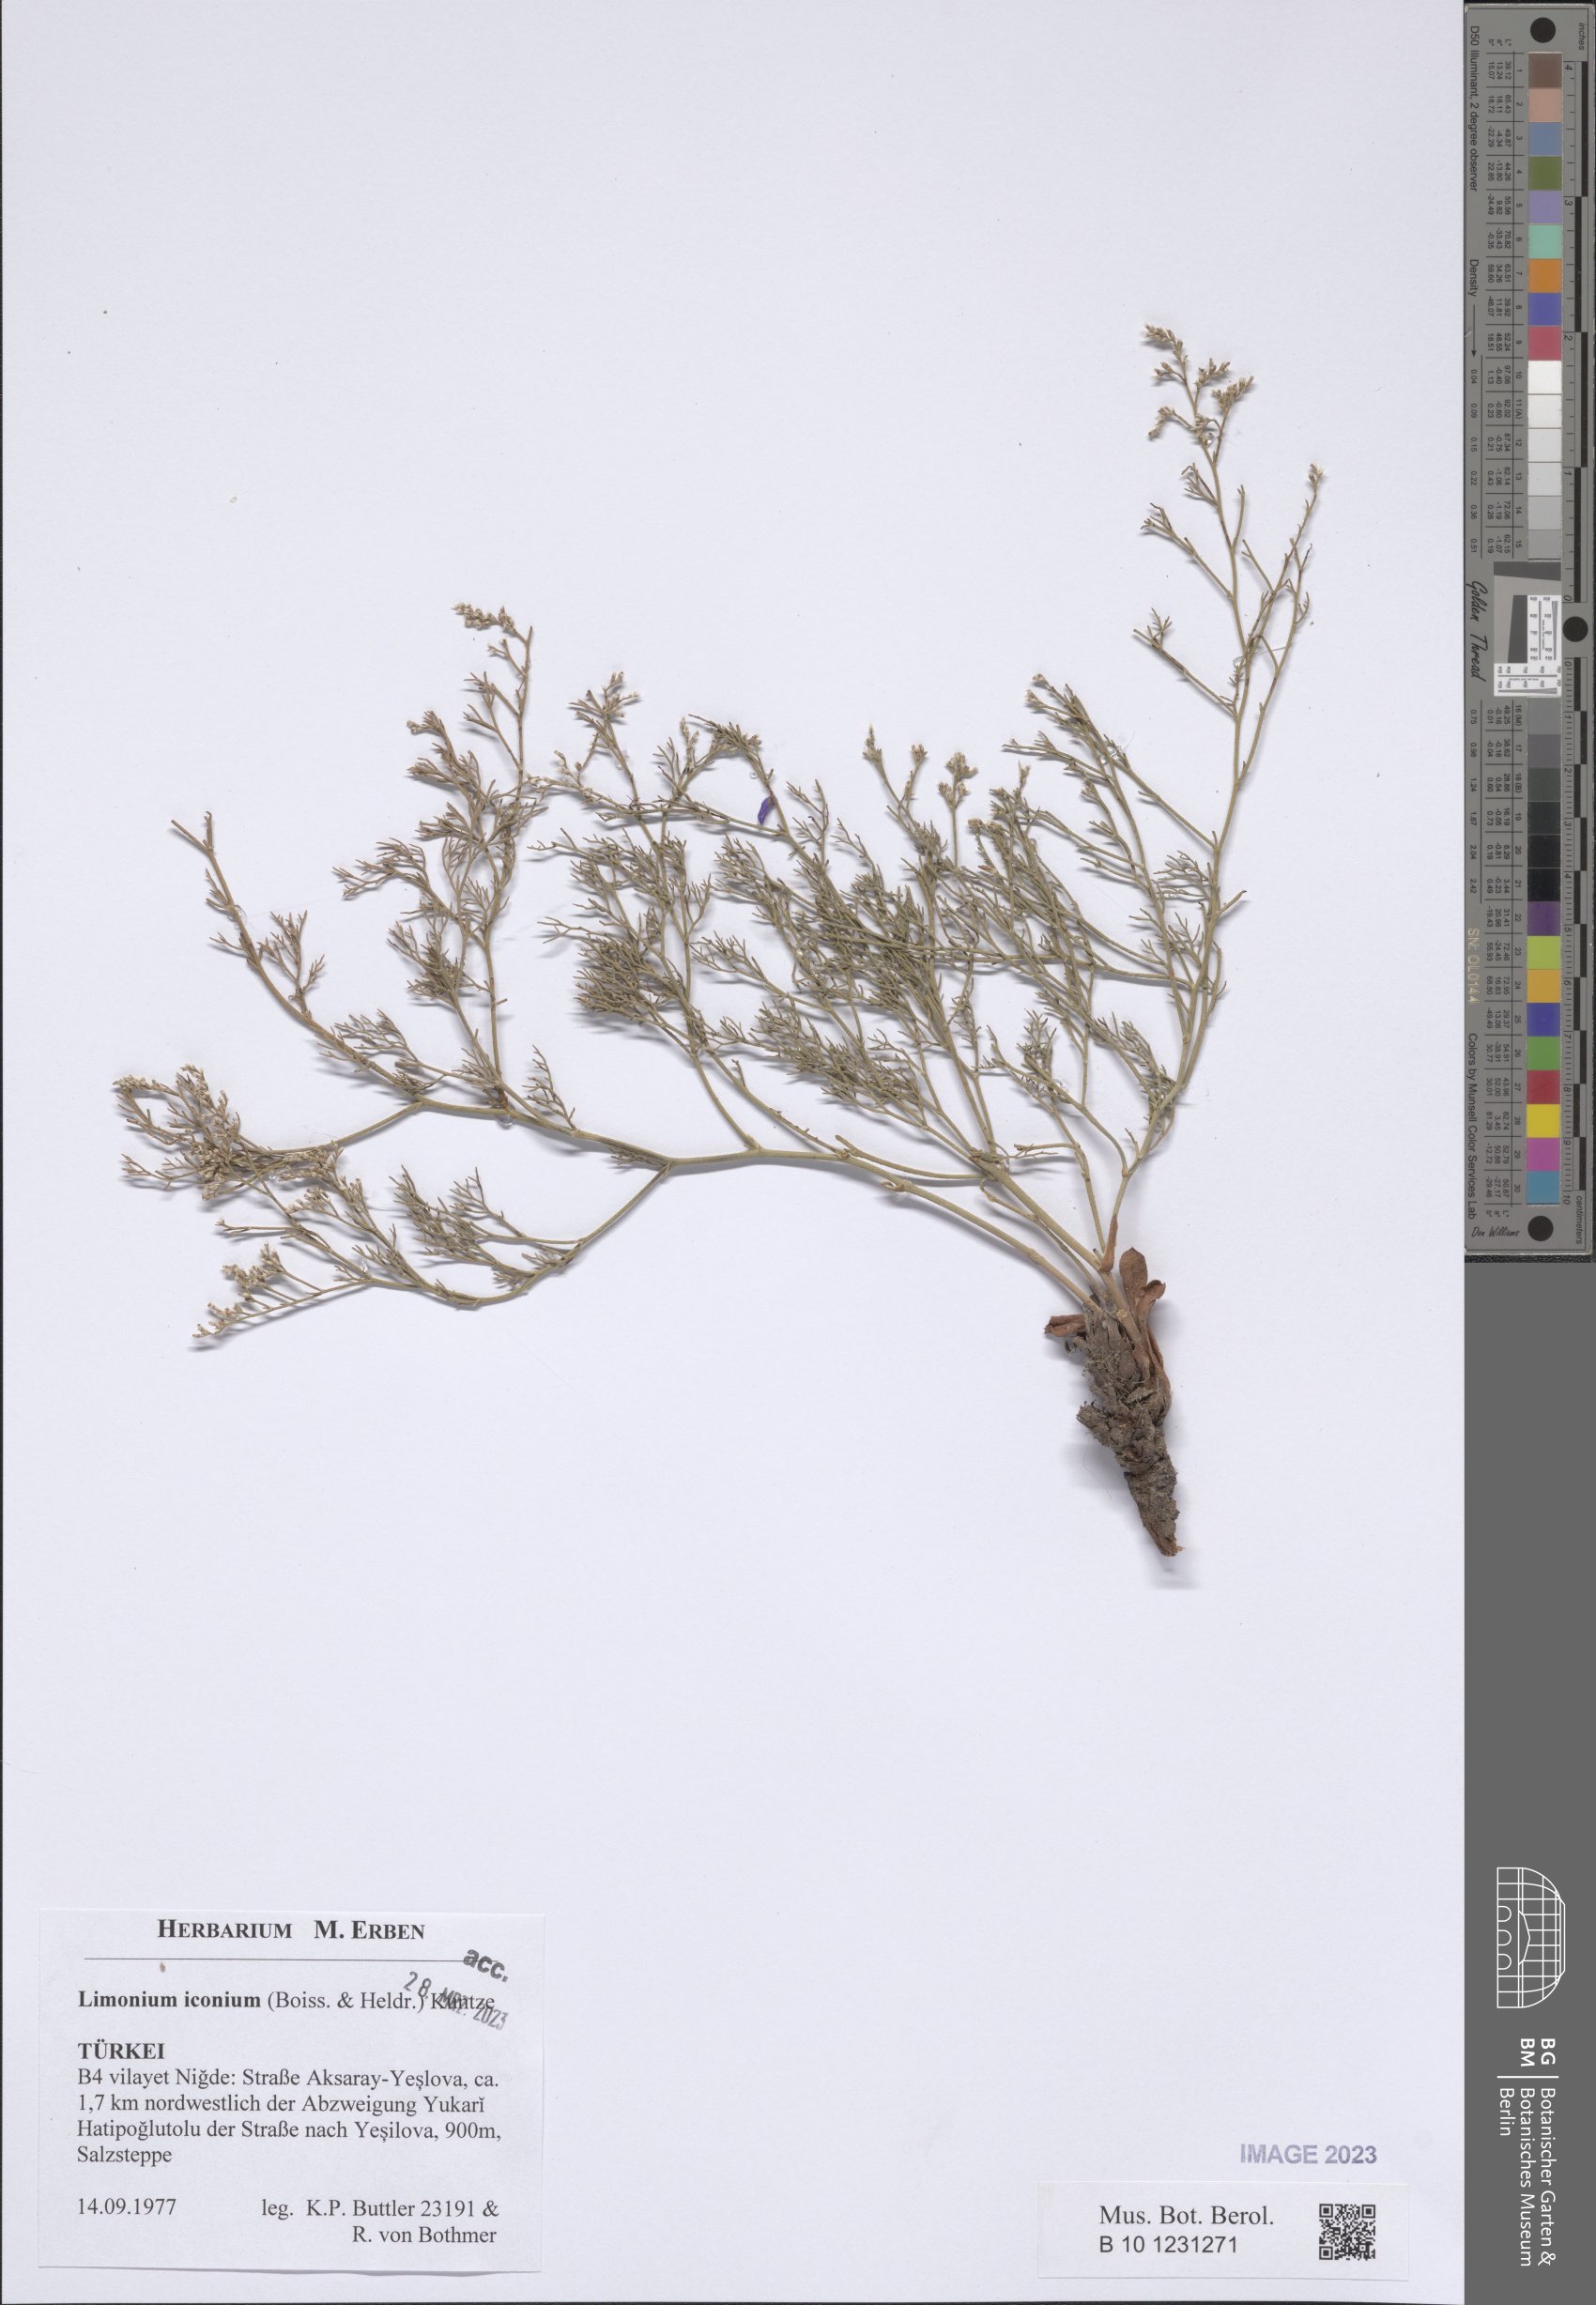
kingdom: Plantae
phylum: Tracheophyta
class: Magnoliopsida
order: Caryophyllales
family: Plumbaginaceae
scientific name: Plumbaginaceae
